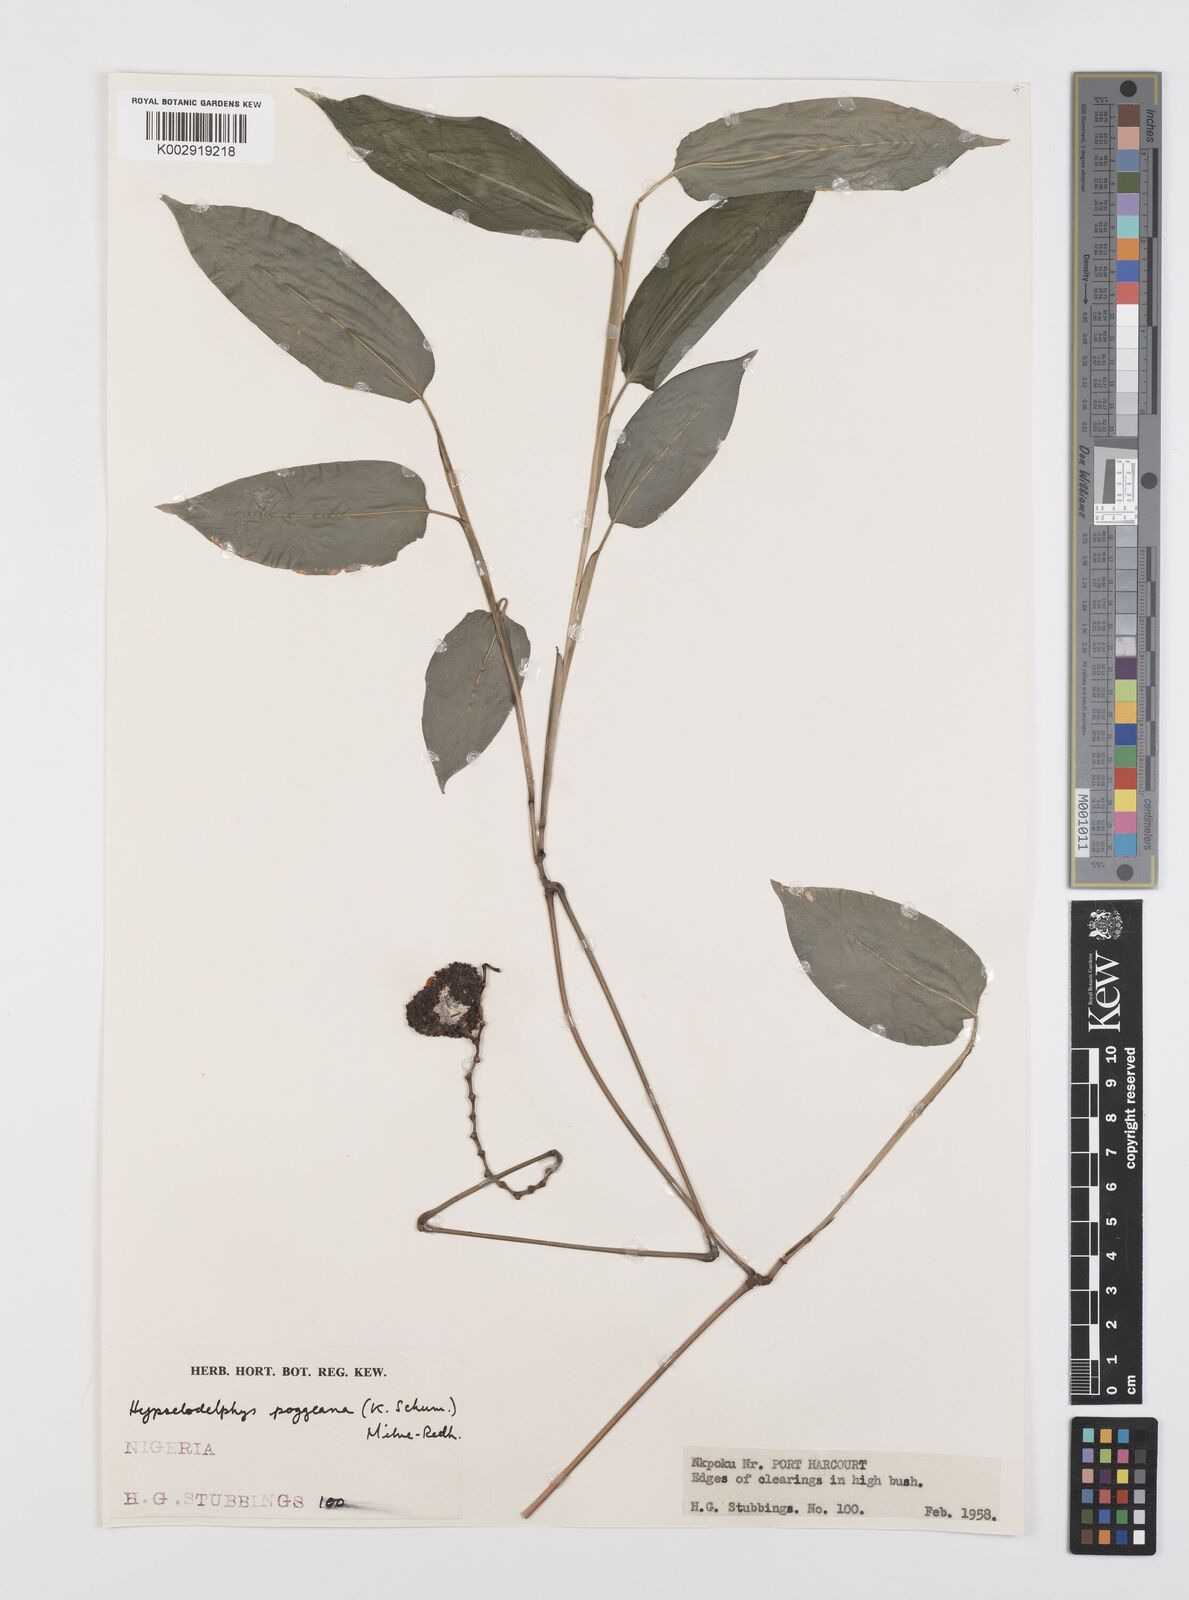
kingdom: Plantae
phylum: Tracheophyta
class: Liliopsida
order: Zingiberales
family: Marantaceae
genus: Hypselodelphys
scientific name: Hypselodelphys poggeana
